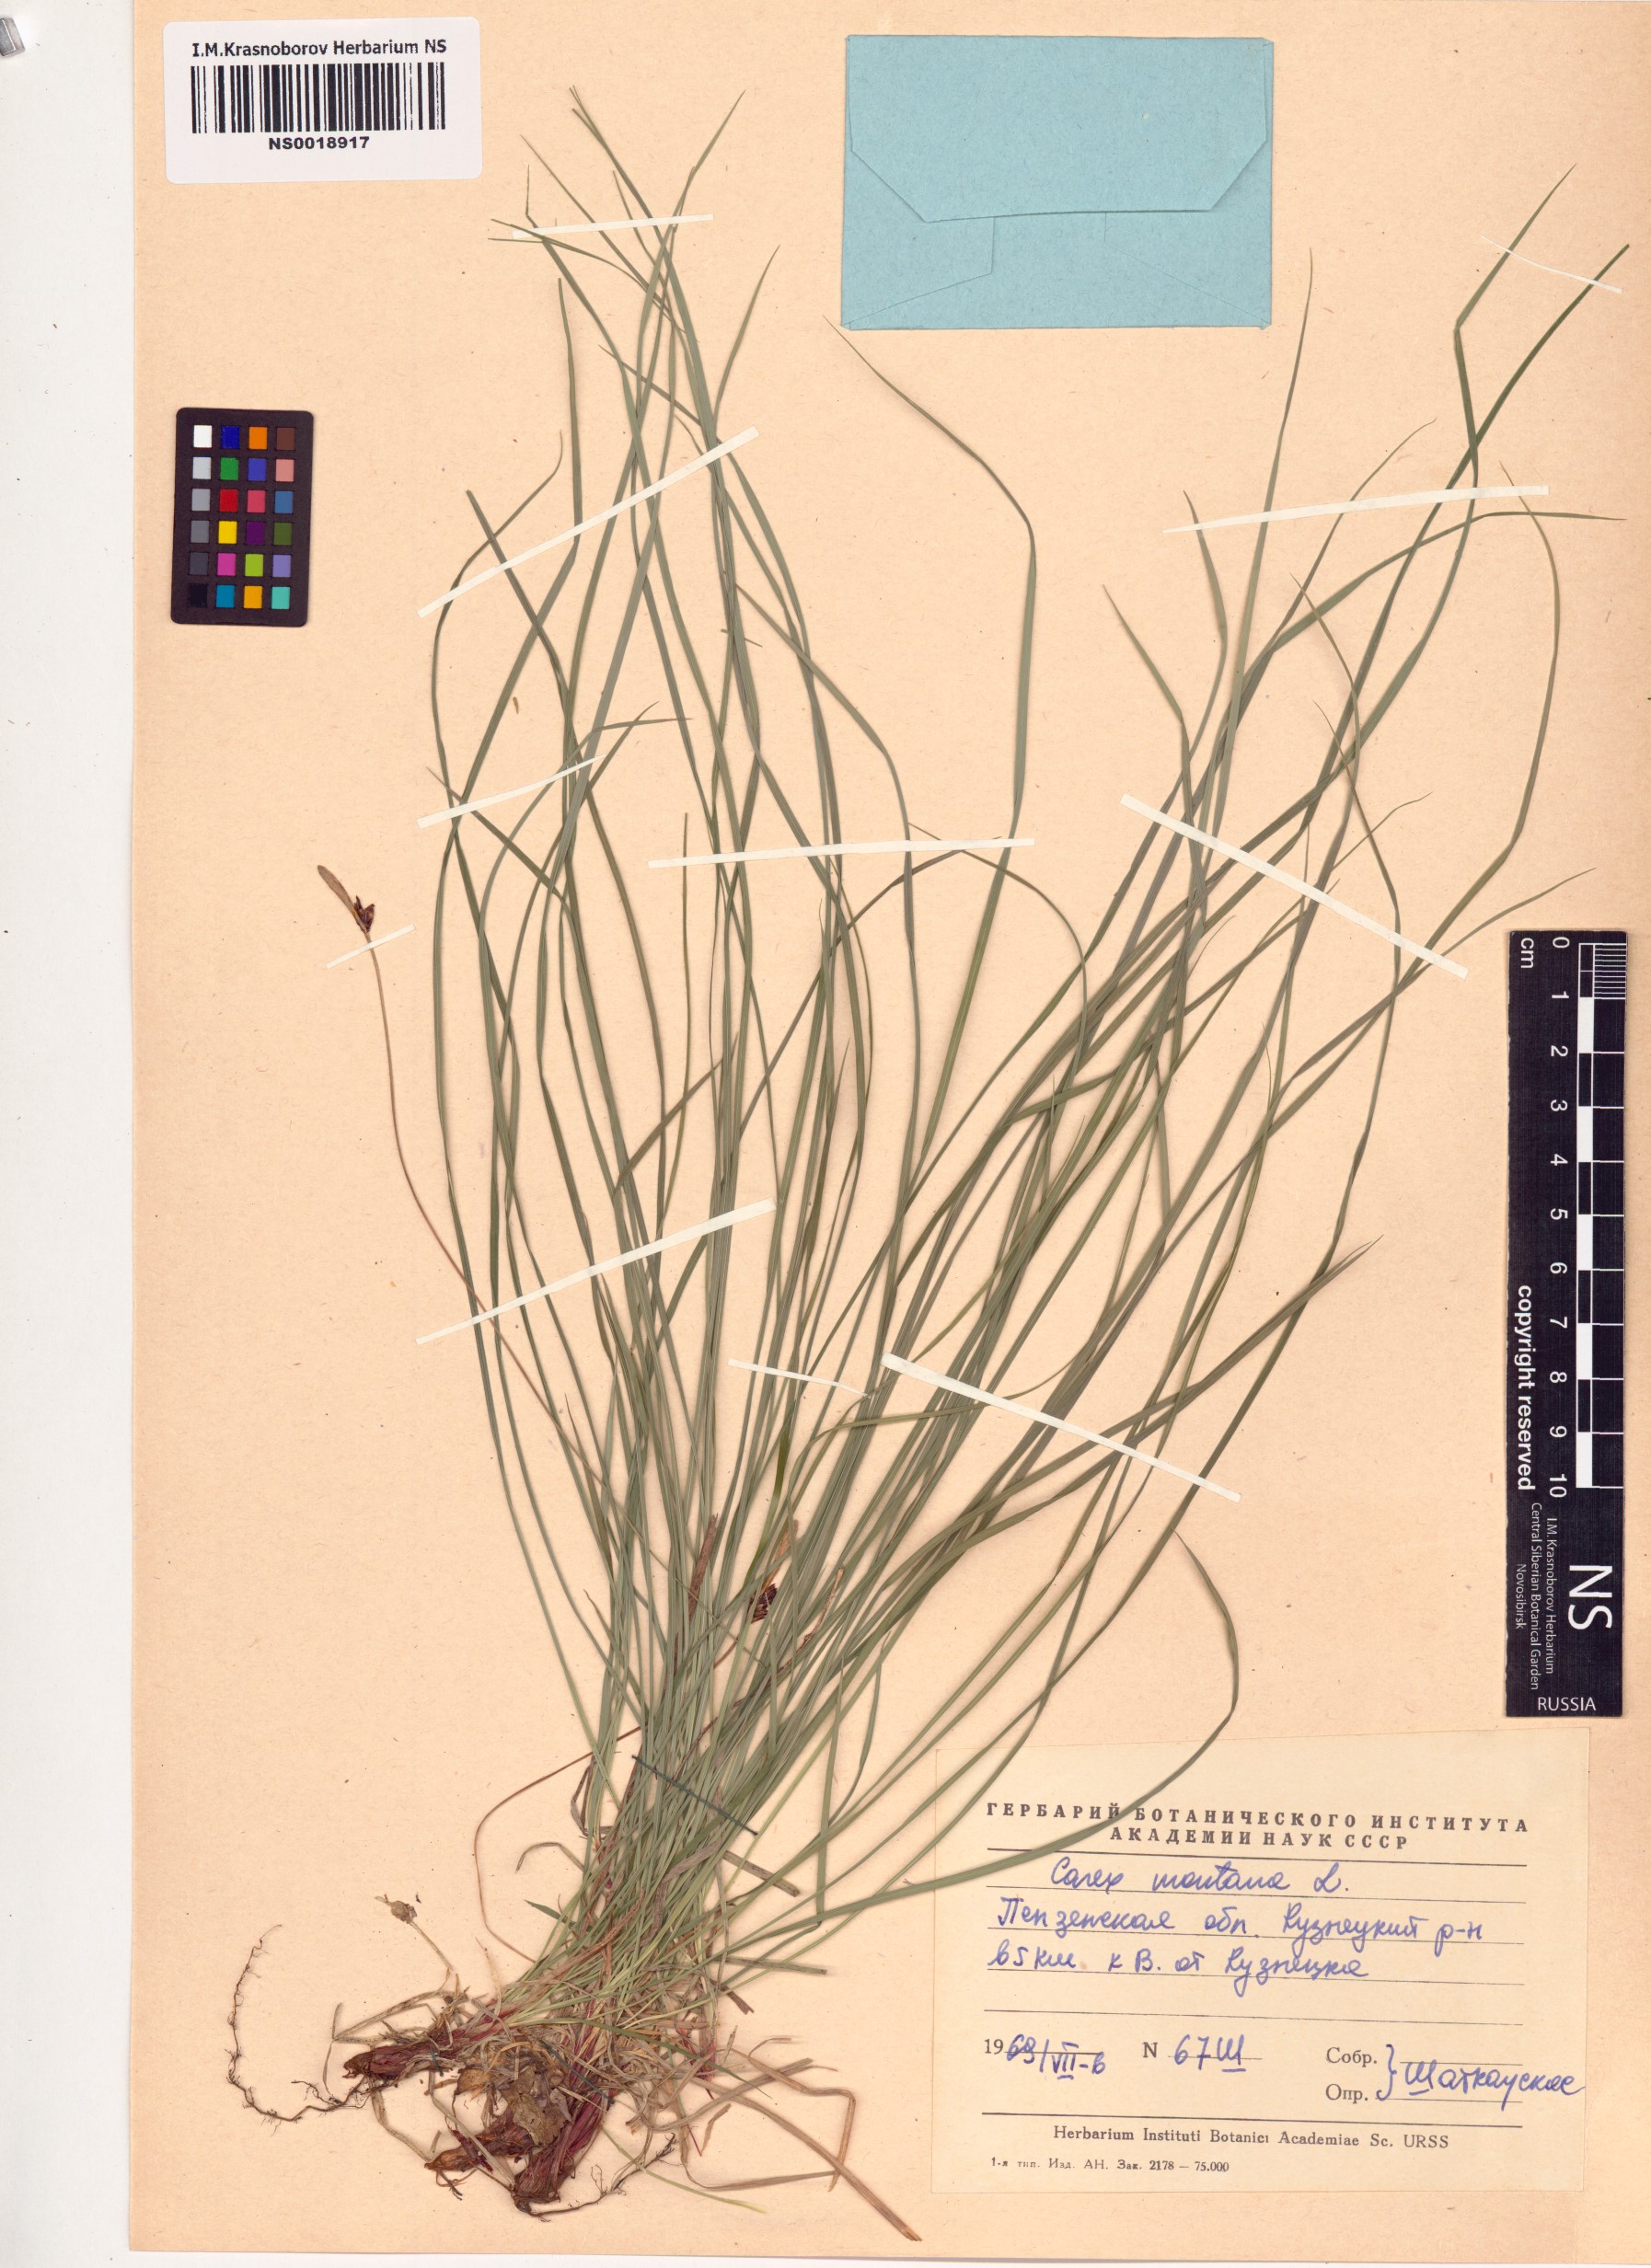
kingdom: Plantae
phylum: Tracheophyta
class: Liliopsida
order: Poales
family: Cyperaceae
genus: Carex
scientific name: Carex montana
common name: Soft-leaved sedge
